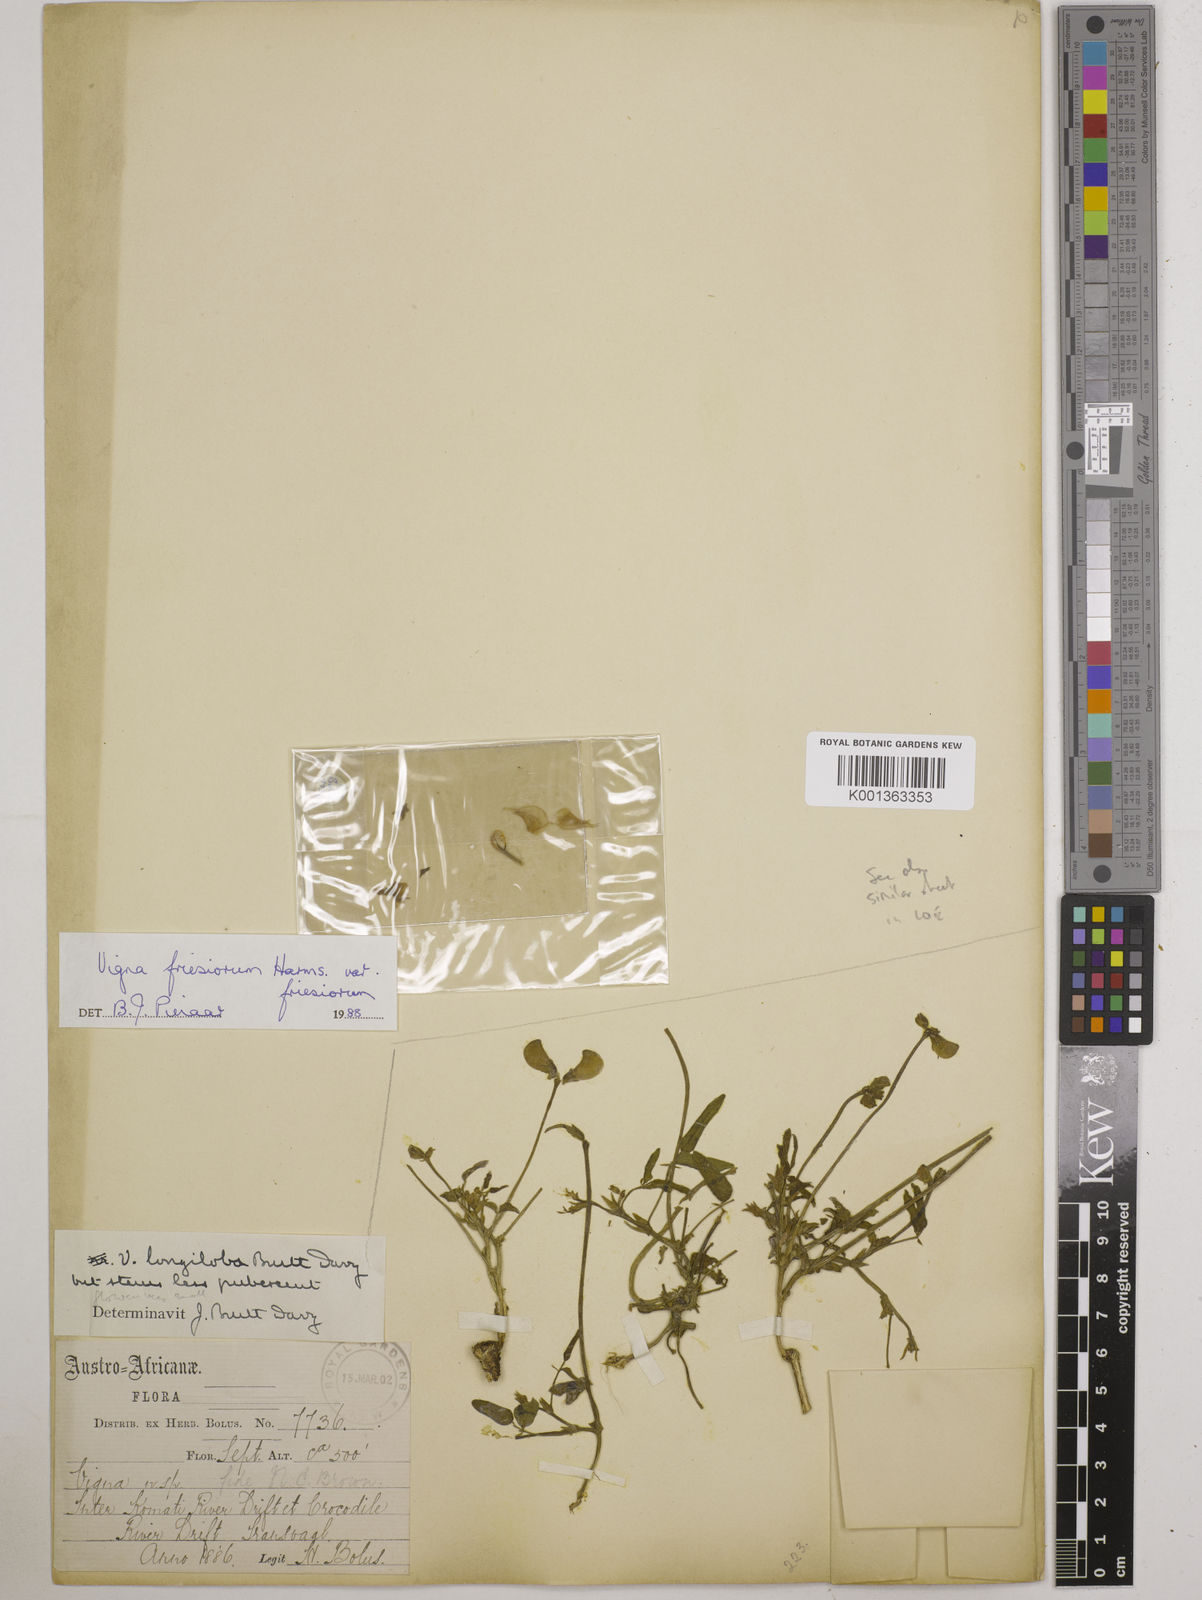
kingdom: Plantae
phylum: Tracheophyta
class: Magnoliopsida
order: Fabales
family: Fabaceae
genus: Vigna
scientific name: Vigna
